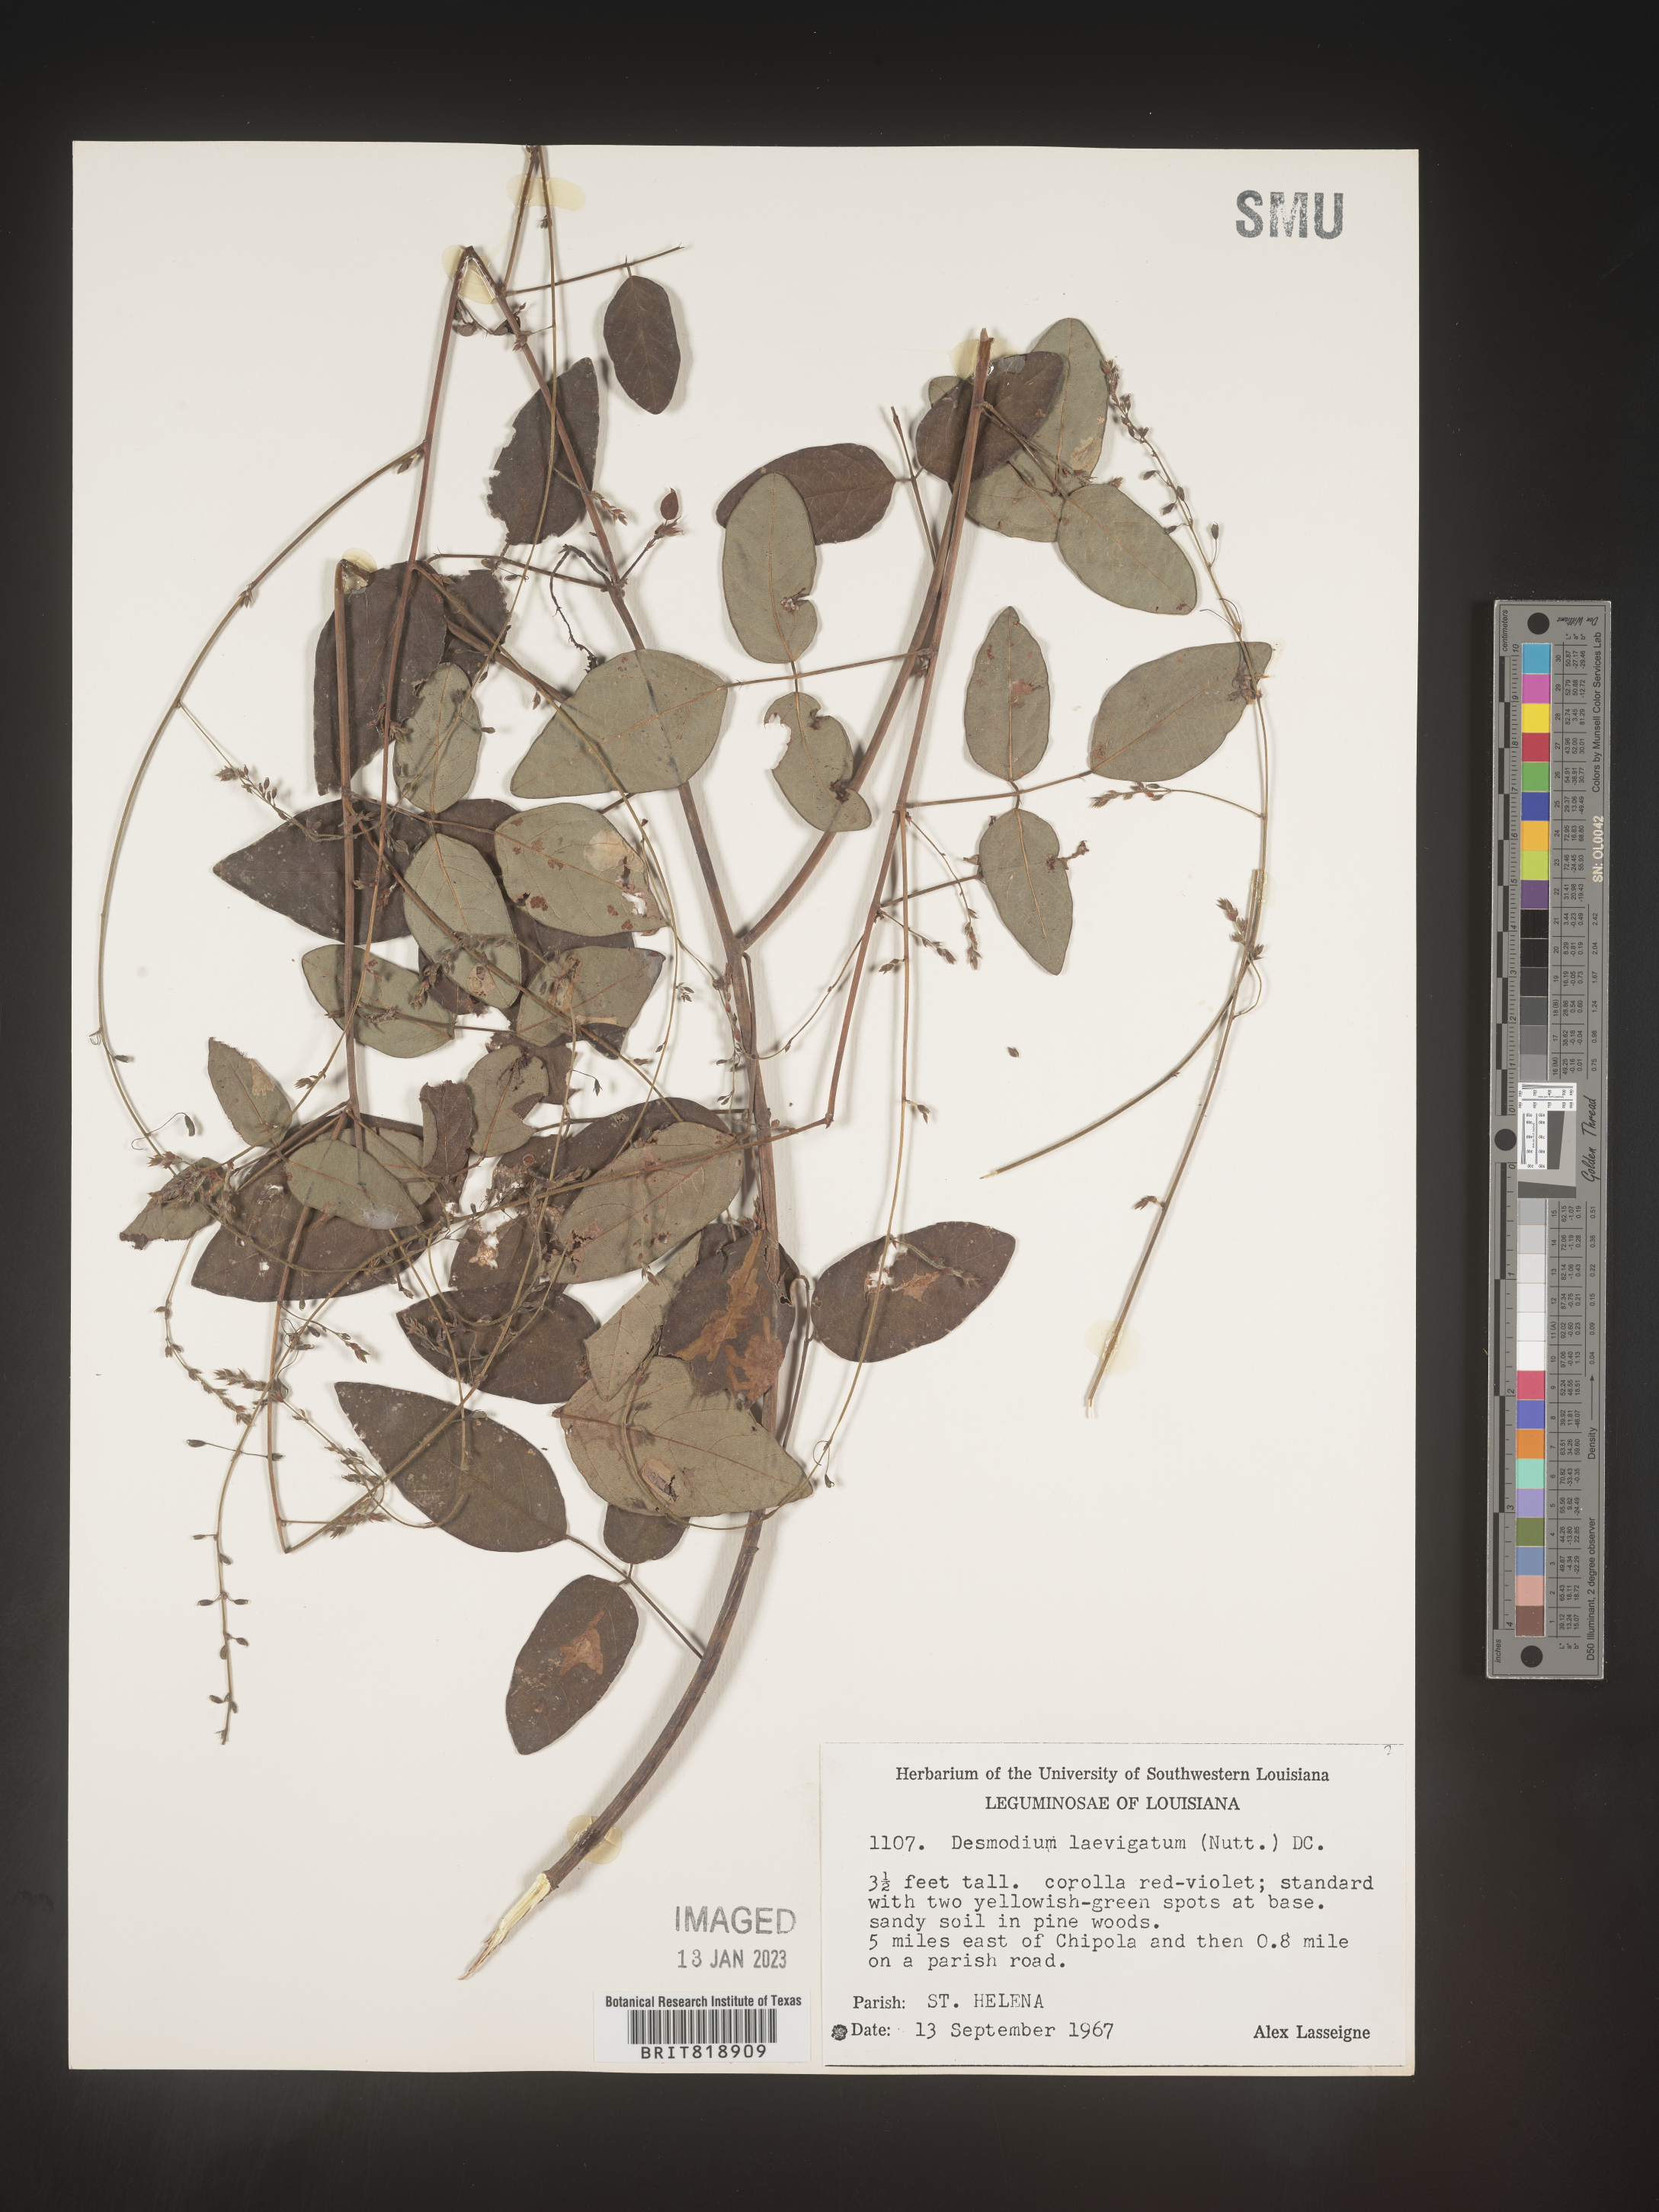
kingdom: Plantae
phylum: Tracheophyta
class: Magnoliopsida
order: Fabales
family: Fabaceae
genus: Desmodium
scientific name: Desmodium laevigatum
